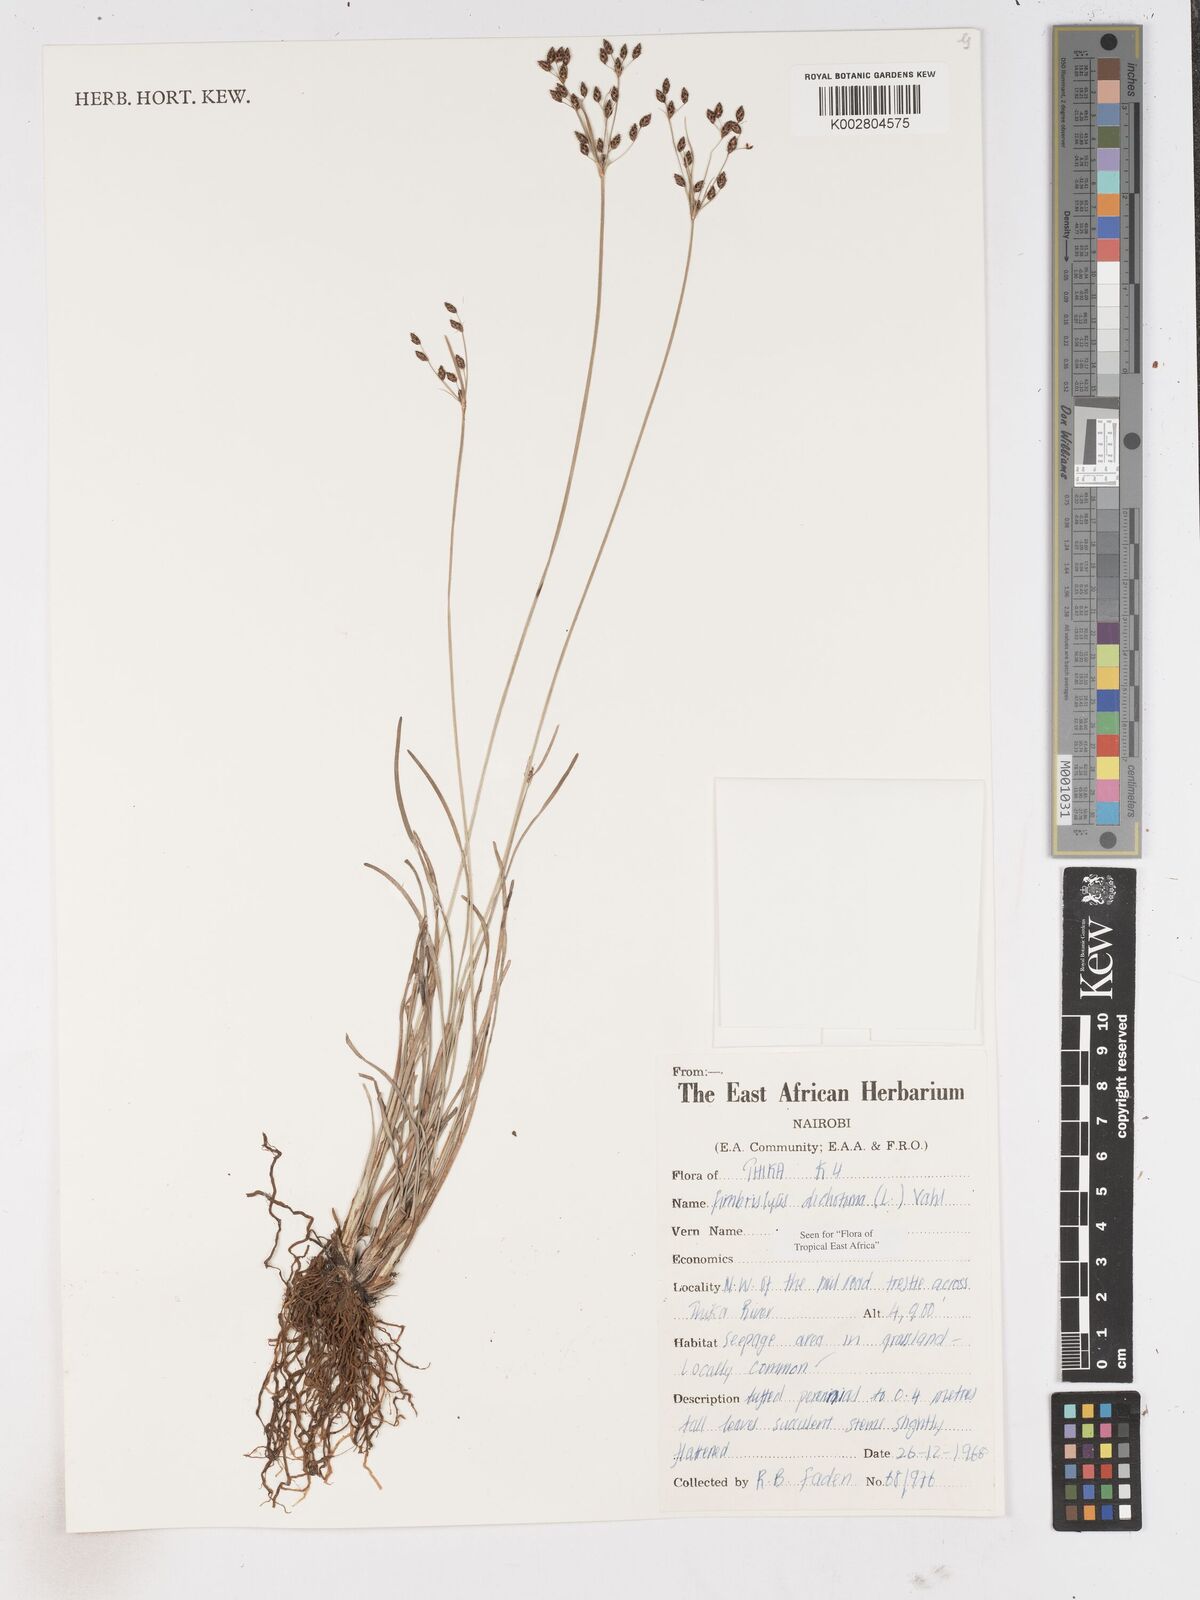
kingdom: Plantae
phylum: Tracheophyta
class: Liliopsida
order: Poales
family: Cyperaceae
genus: Fimbristylis
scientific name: Fimbristylis dichotoma
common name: Forked fimbry
